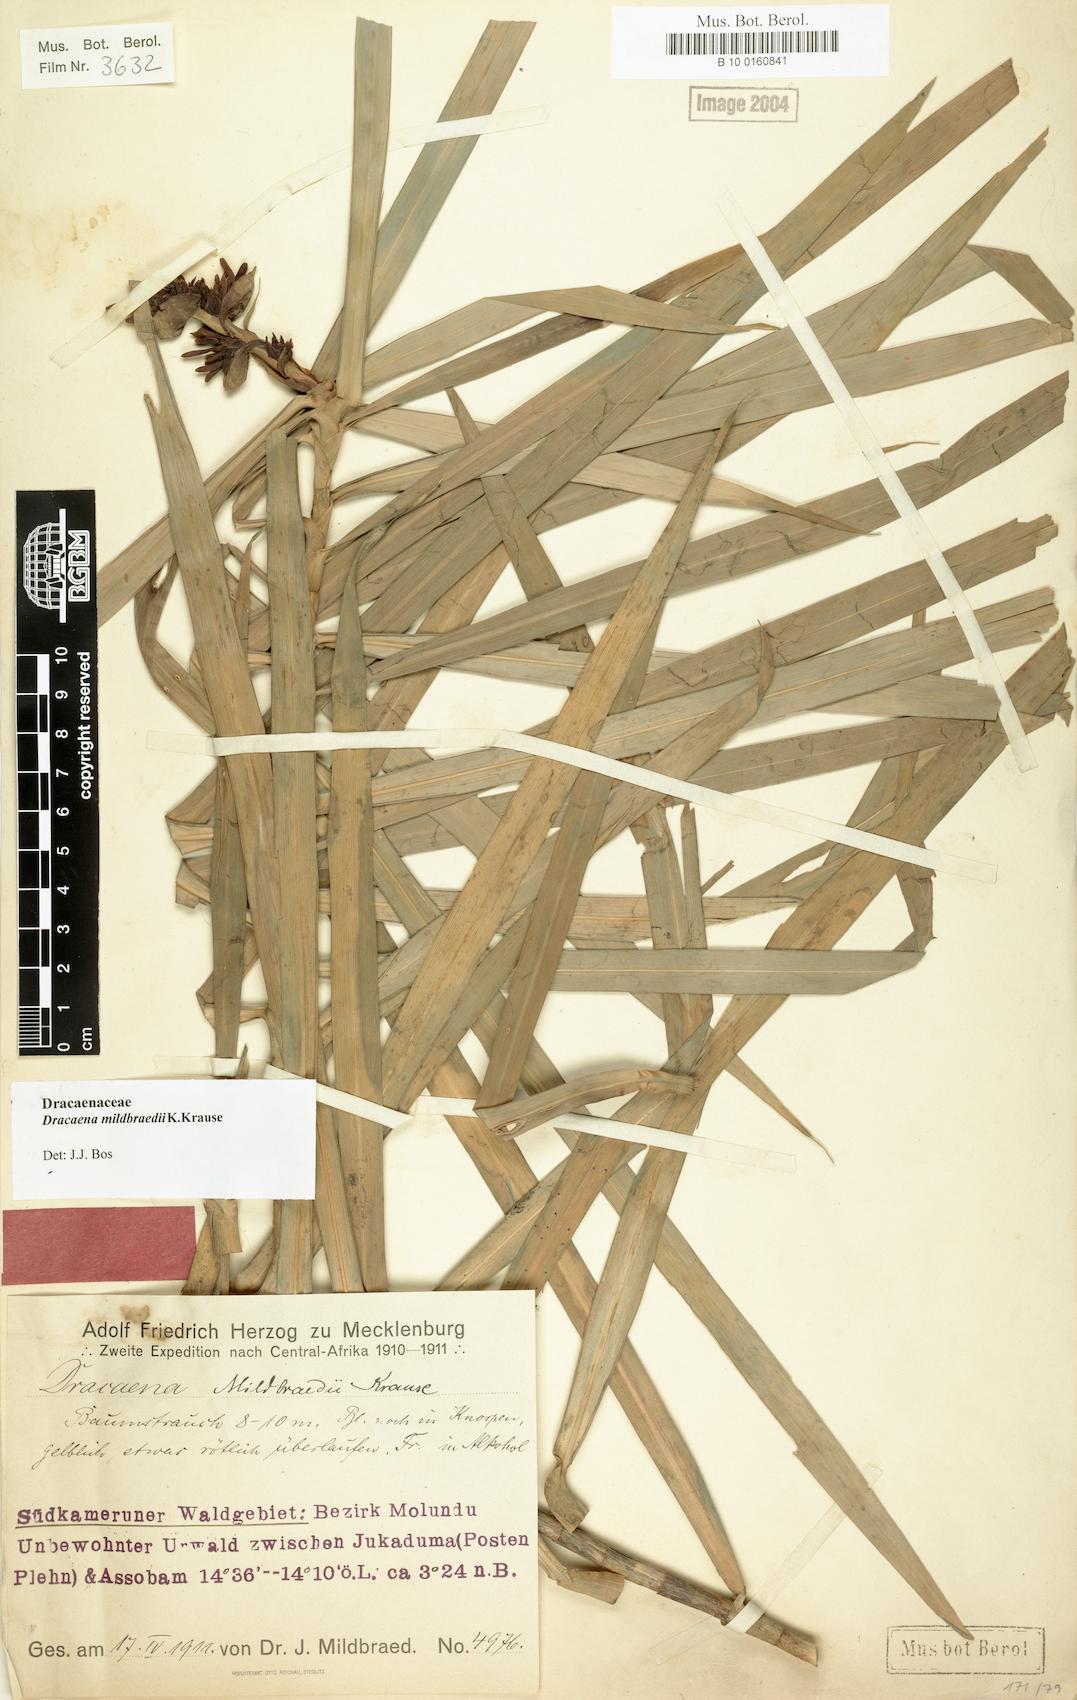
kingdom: Plantae
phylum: Tracheophyta
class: Liliopsida
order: Asparagales
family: Asparagaceae
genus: Dracaena
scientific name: Dracaena viridiflora
